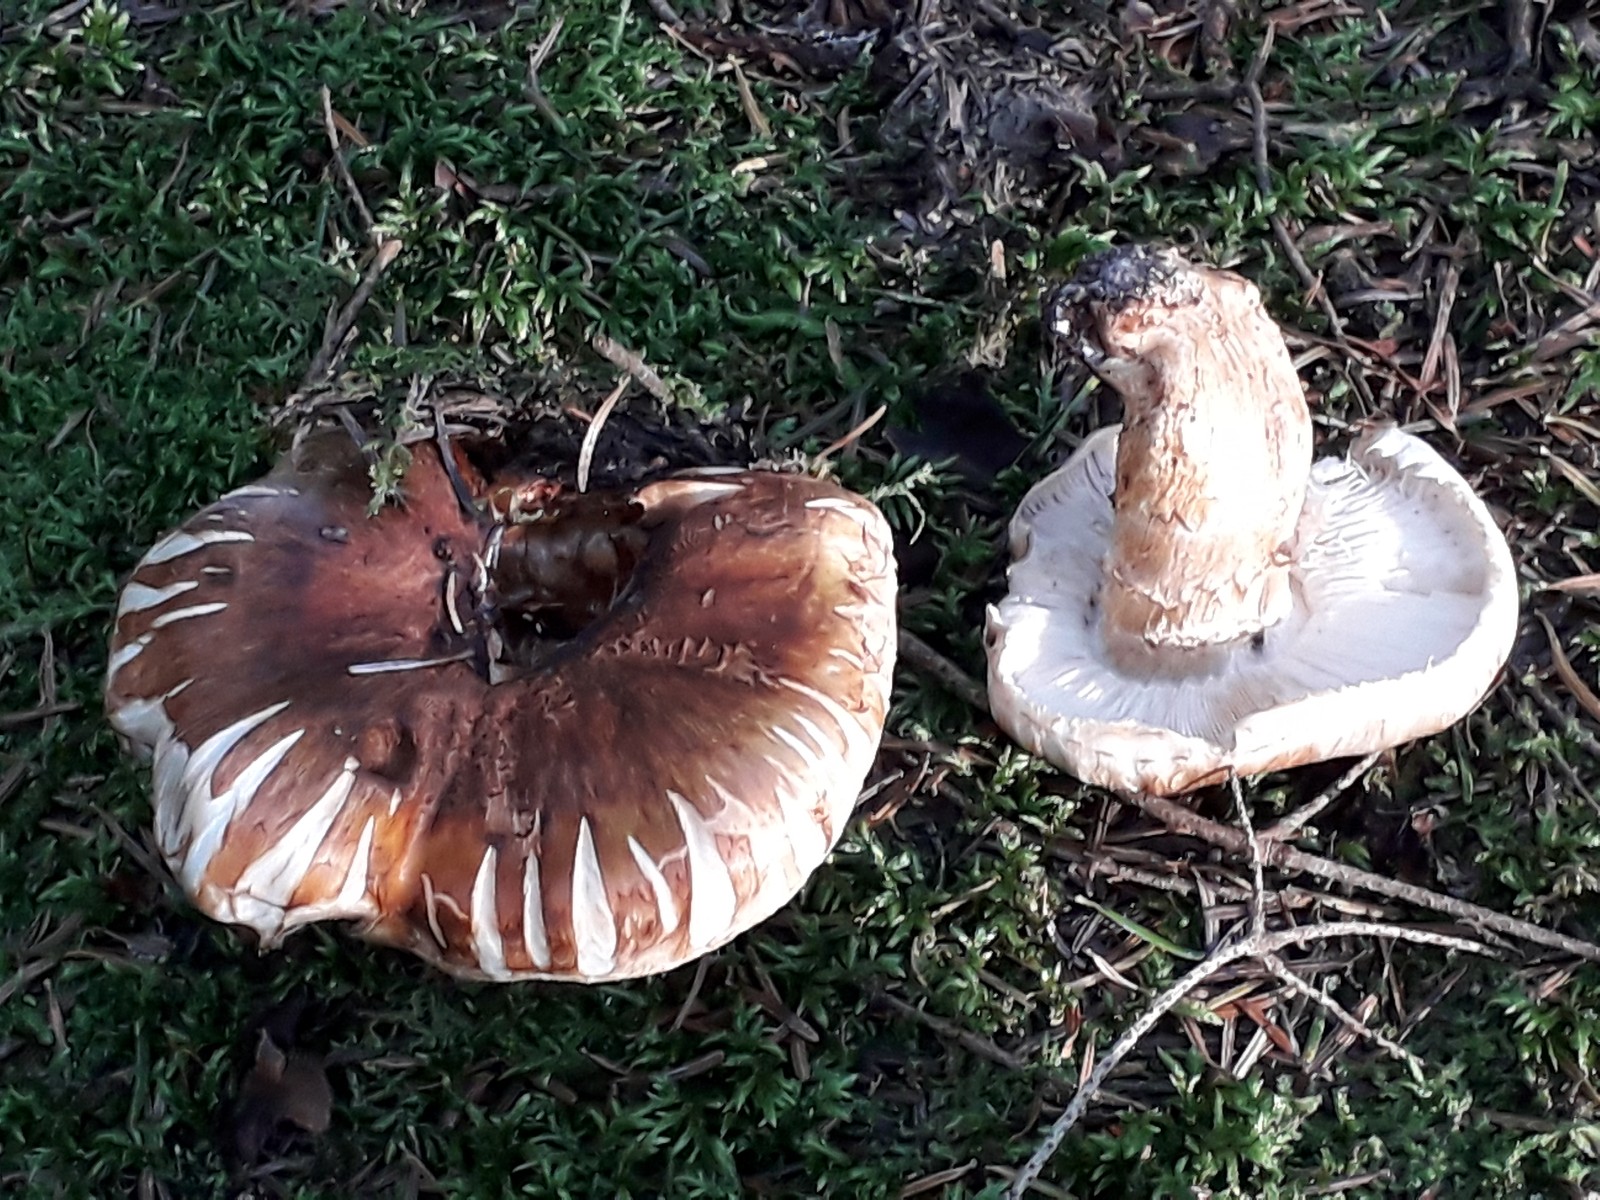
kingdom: Fungi
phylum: Basidiomycota
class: Agaricomycetes
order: Agaricales
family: Tricholomataceae
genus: Tricholoma
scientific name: Tricholoma focale
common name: halsbånd-ridderhat
